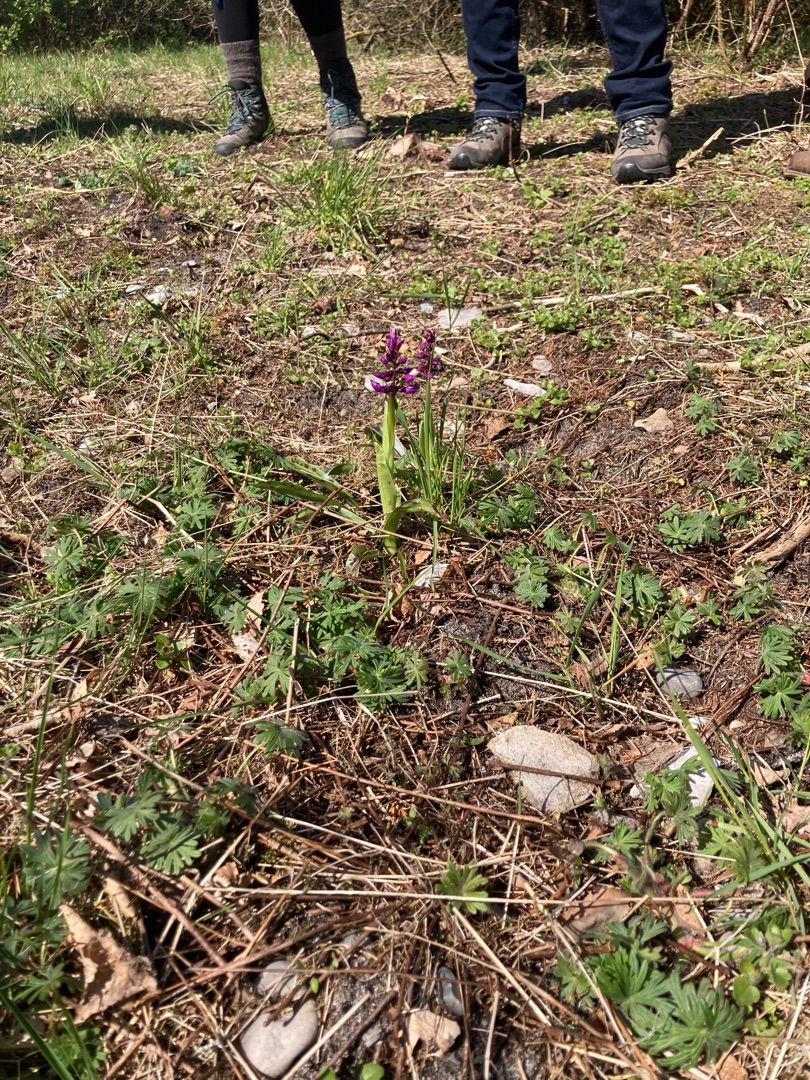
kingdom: Plantae
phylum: Tracheophyta
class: Liliopsida
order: Asparagales
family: Orchidaceae
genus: Orchis
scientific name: Orchis mascula
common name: Tyndakset gøgeurt
